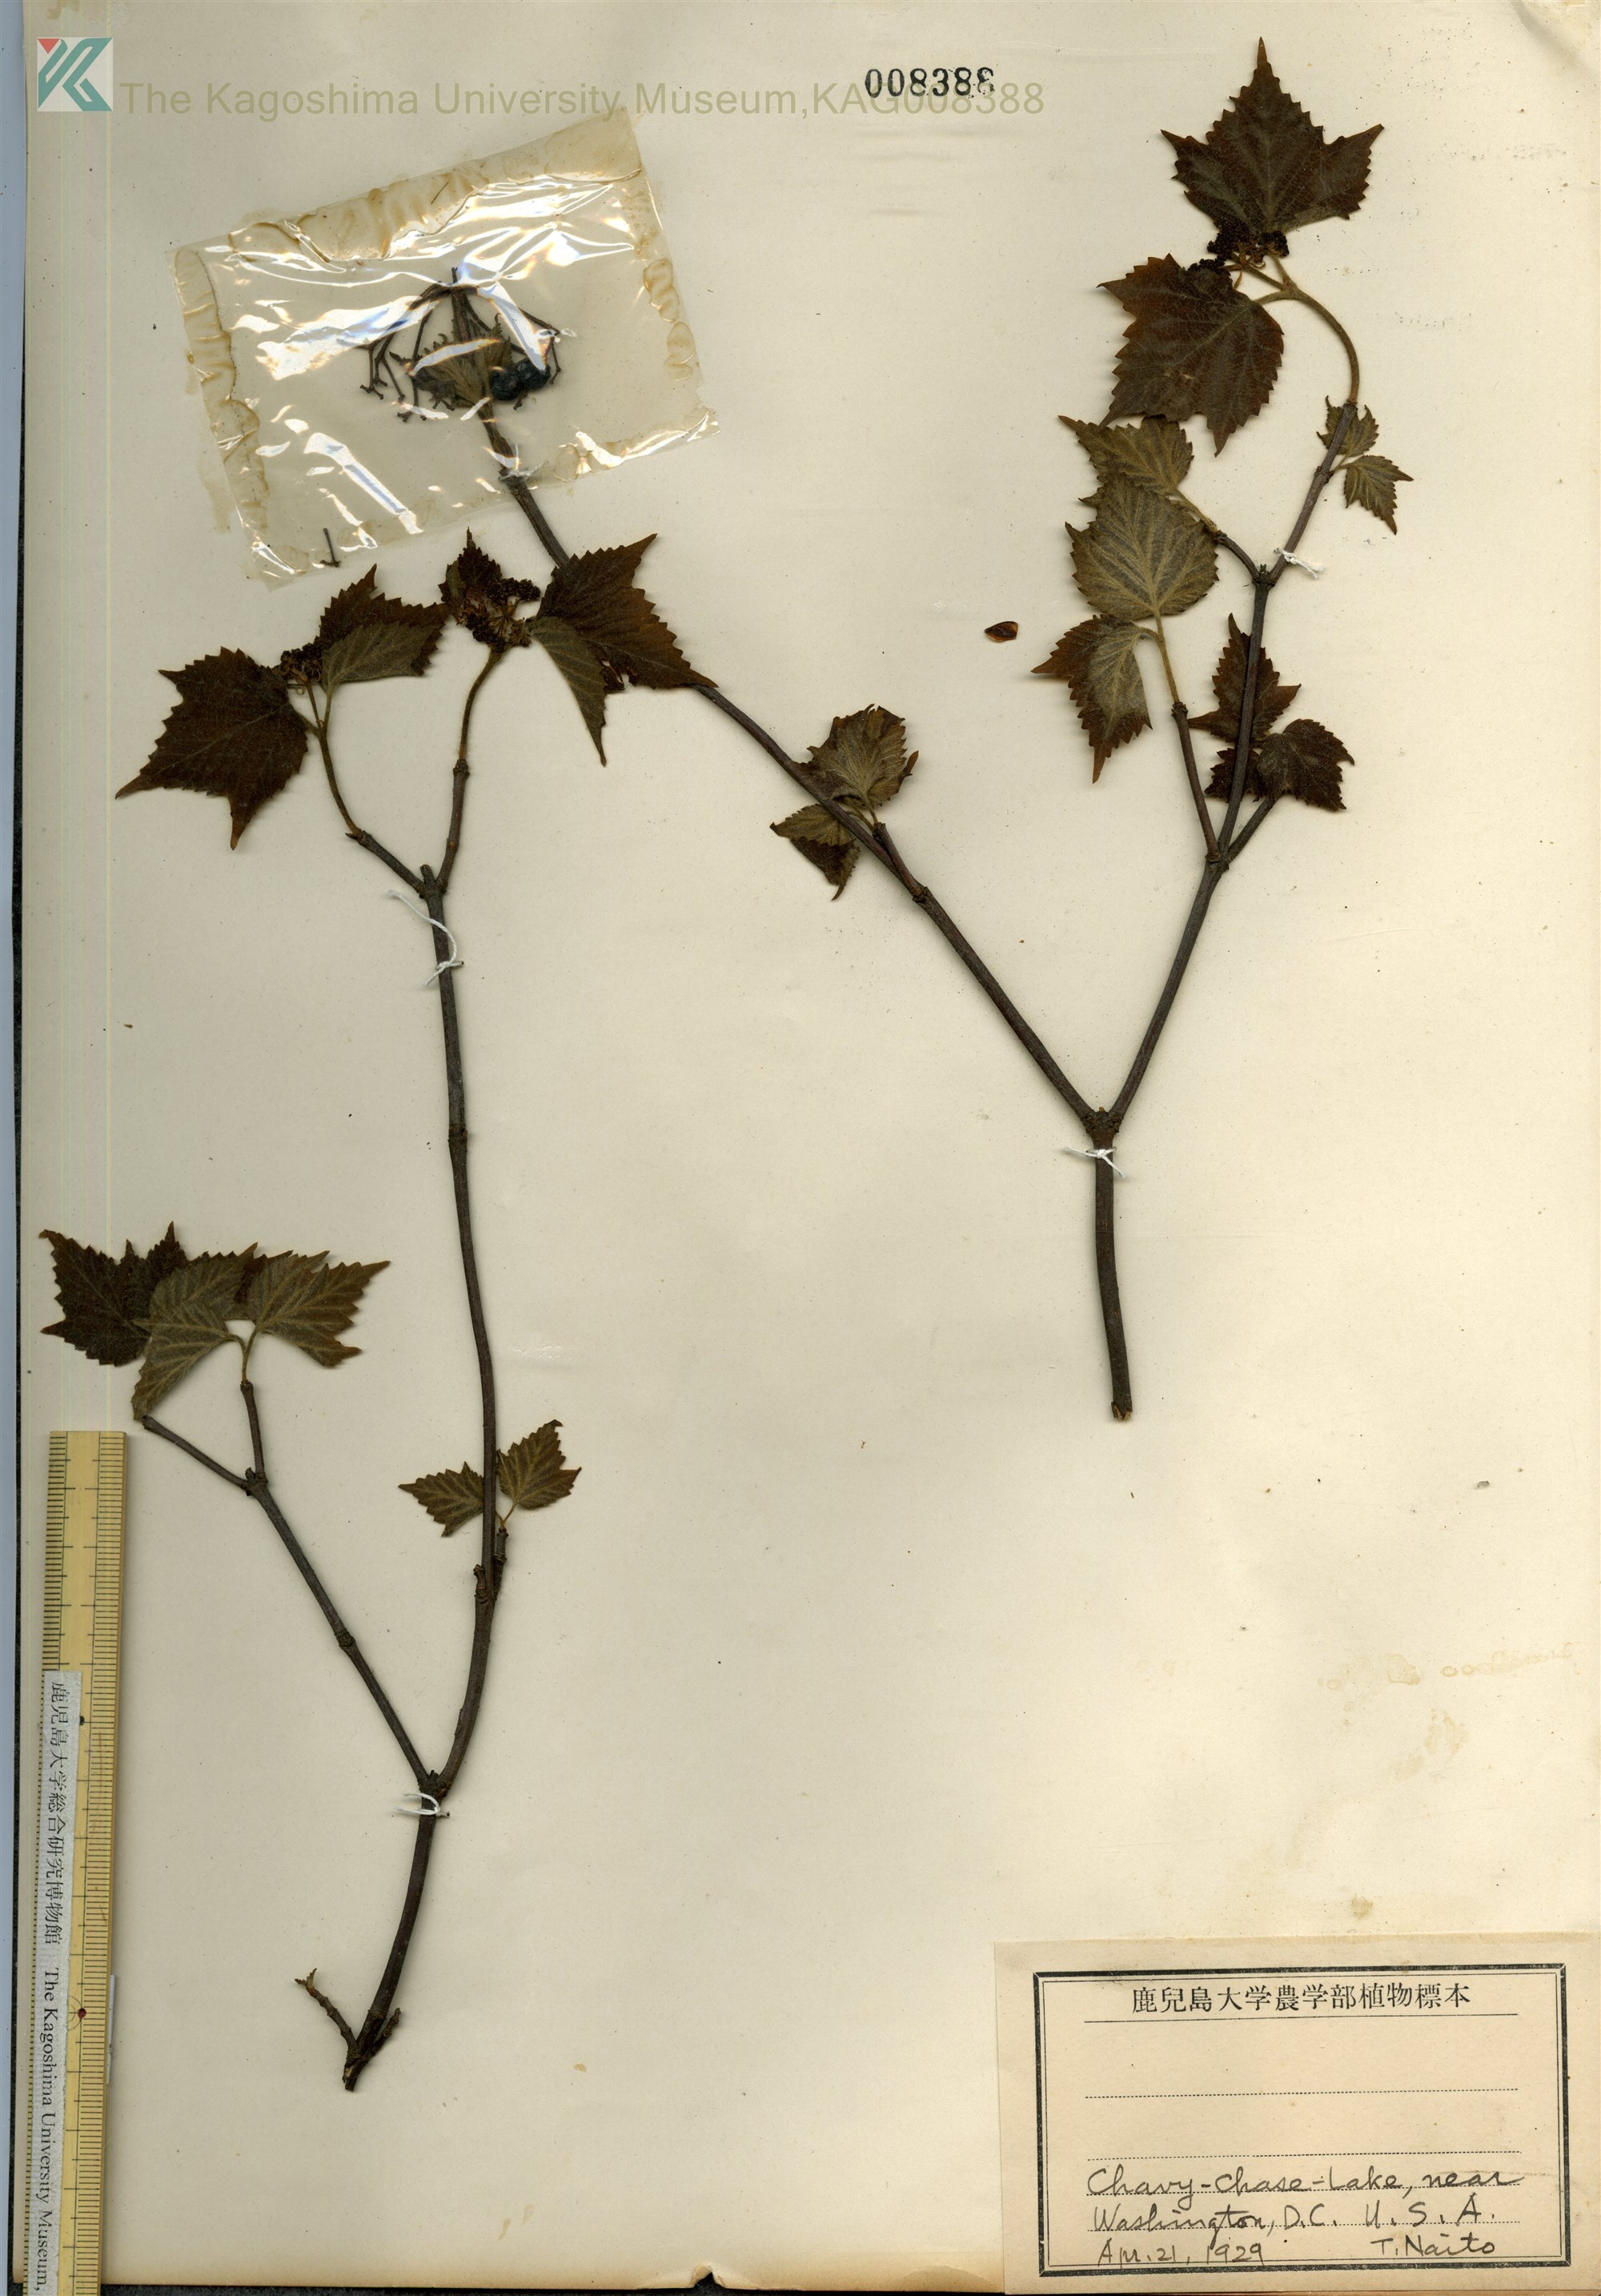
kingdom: Plantae
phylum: Tracheophyta
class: Magnoliopsida
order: Dipsacales
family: Viburnaceae
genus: Viburnum
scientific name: Viburnum acerifolium
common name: Dockmackie
